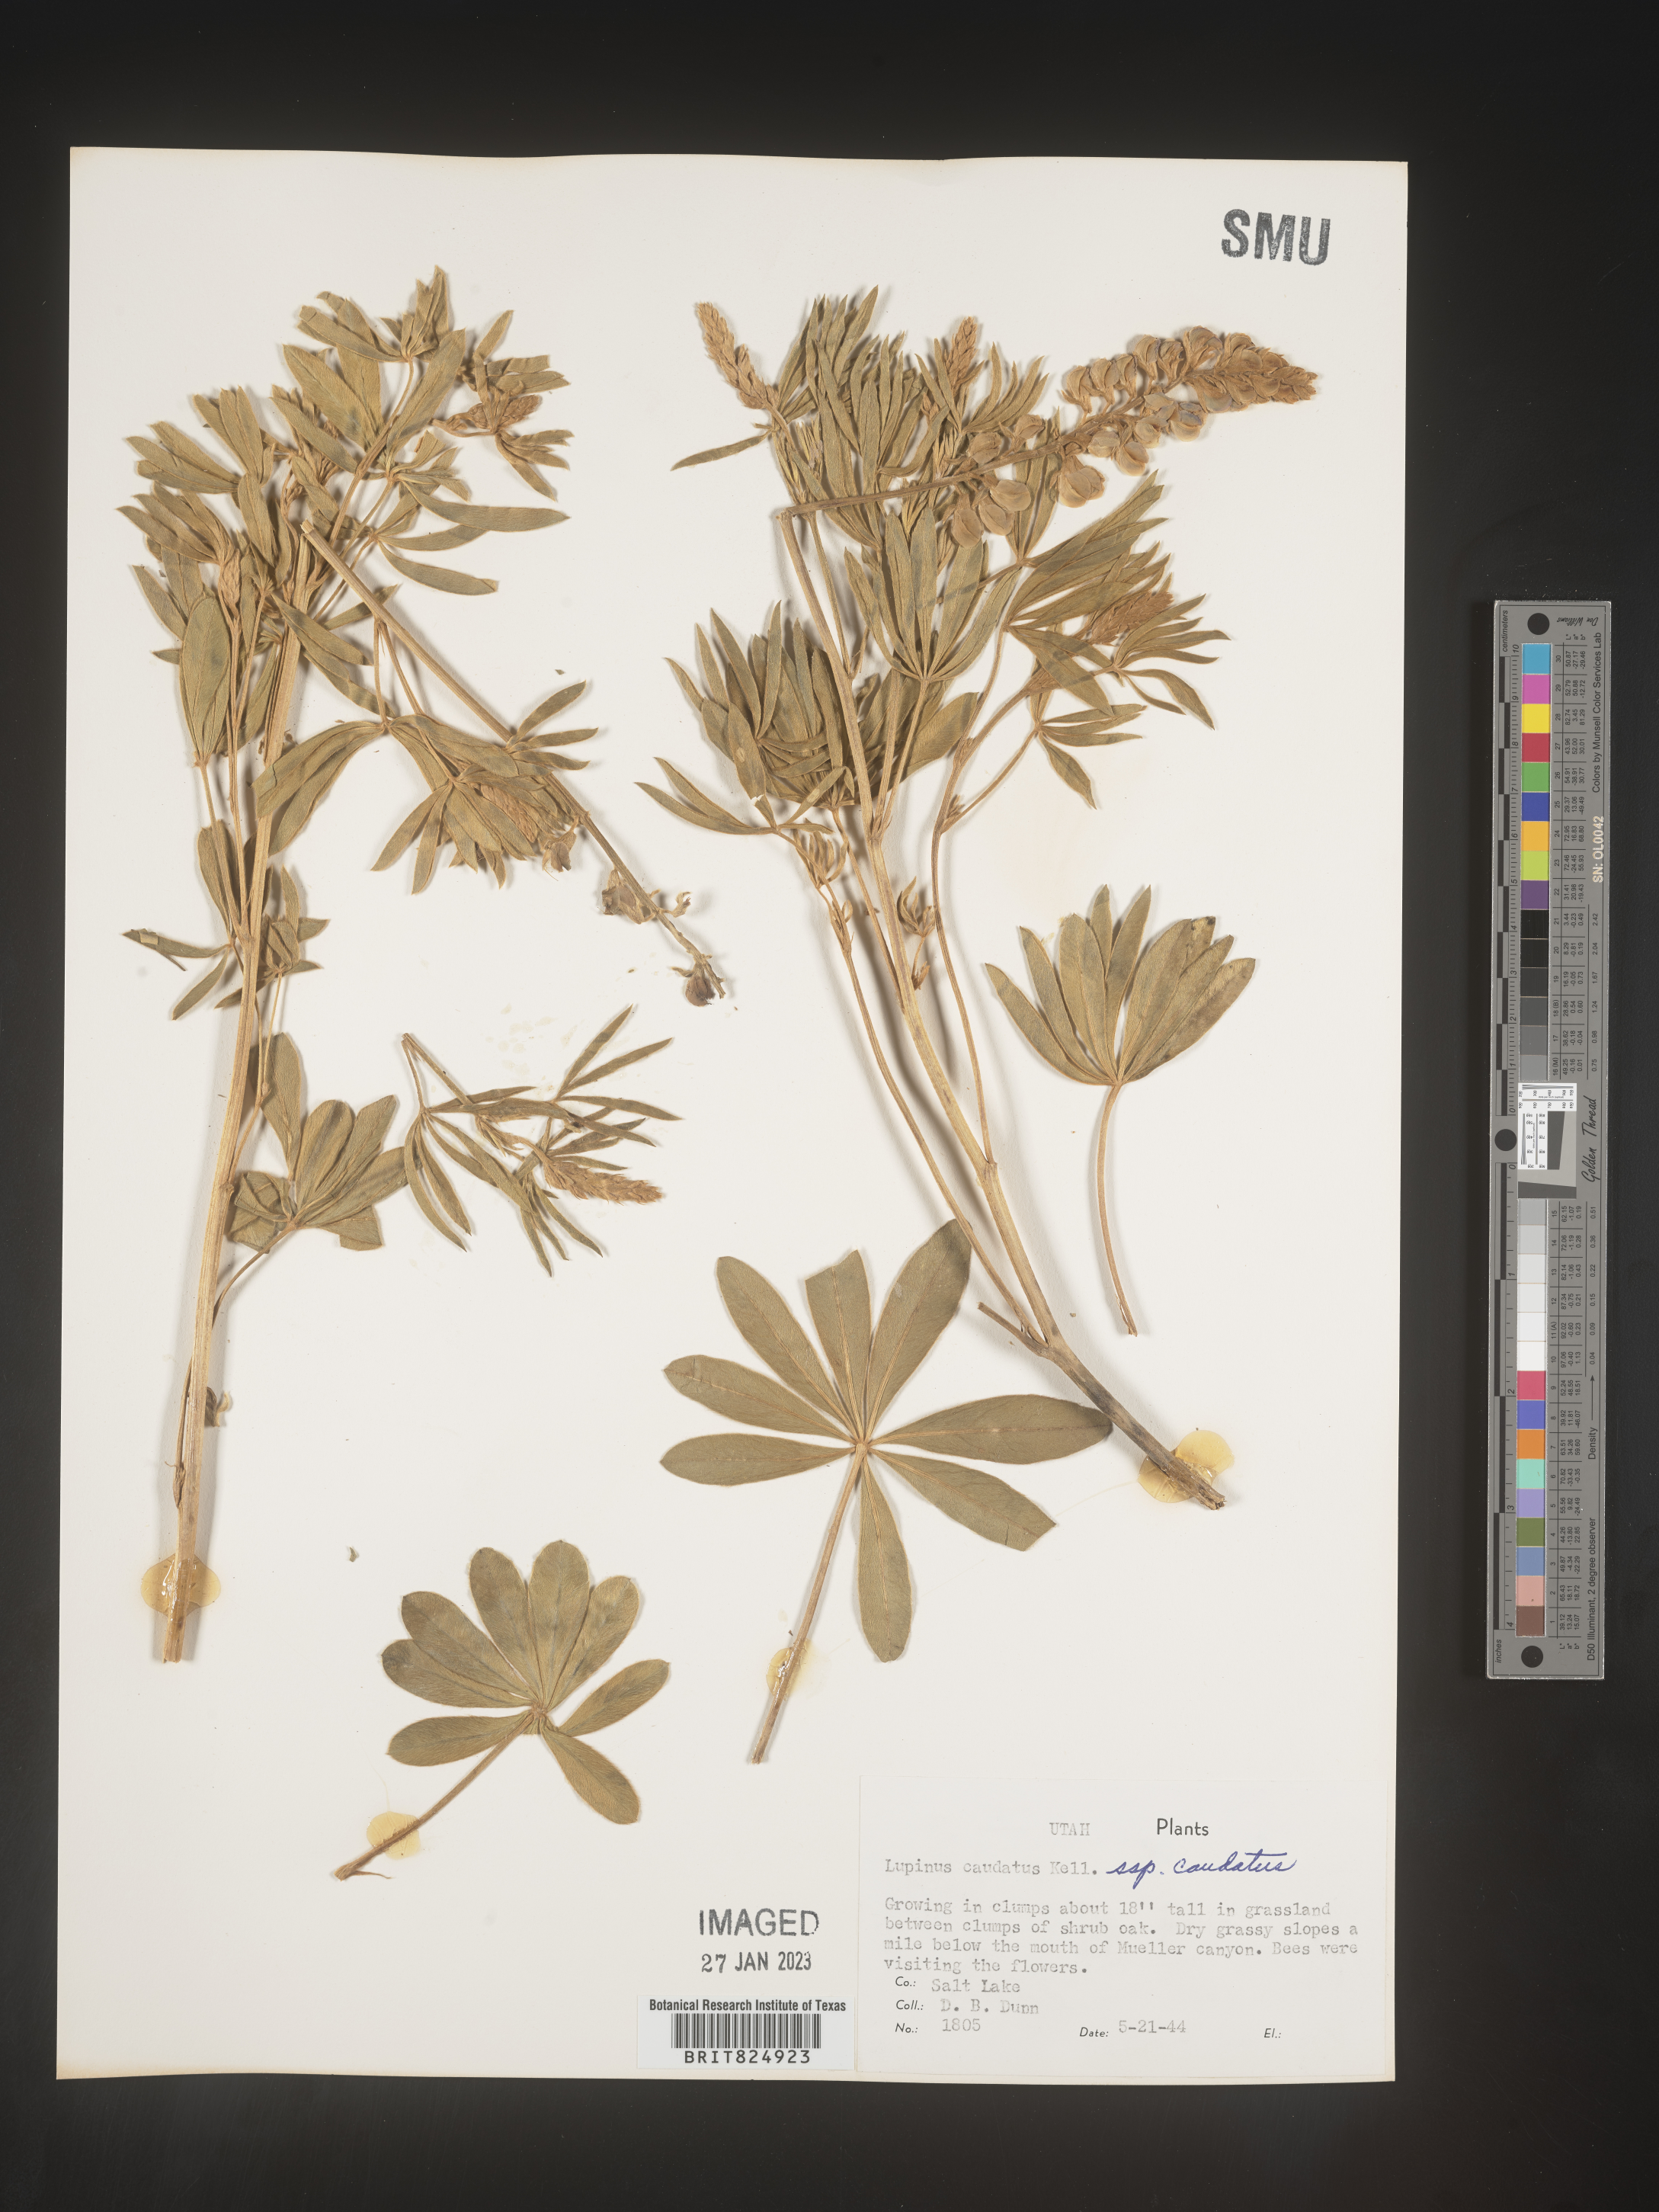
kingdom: Plantae
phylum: Tracheophyta
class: Magnoliopsida
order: Fabales
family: Fabaceae
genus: Lupinus
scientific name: Lupinus caudatus
